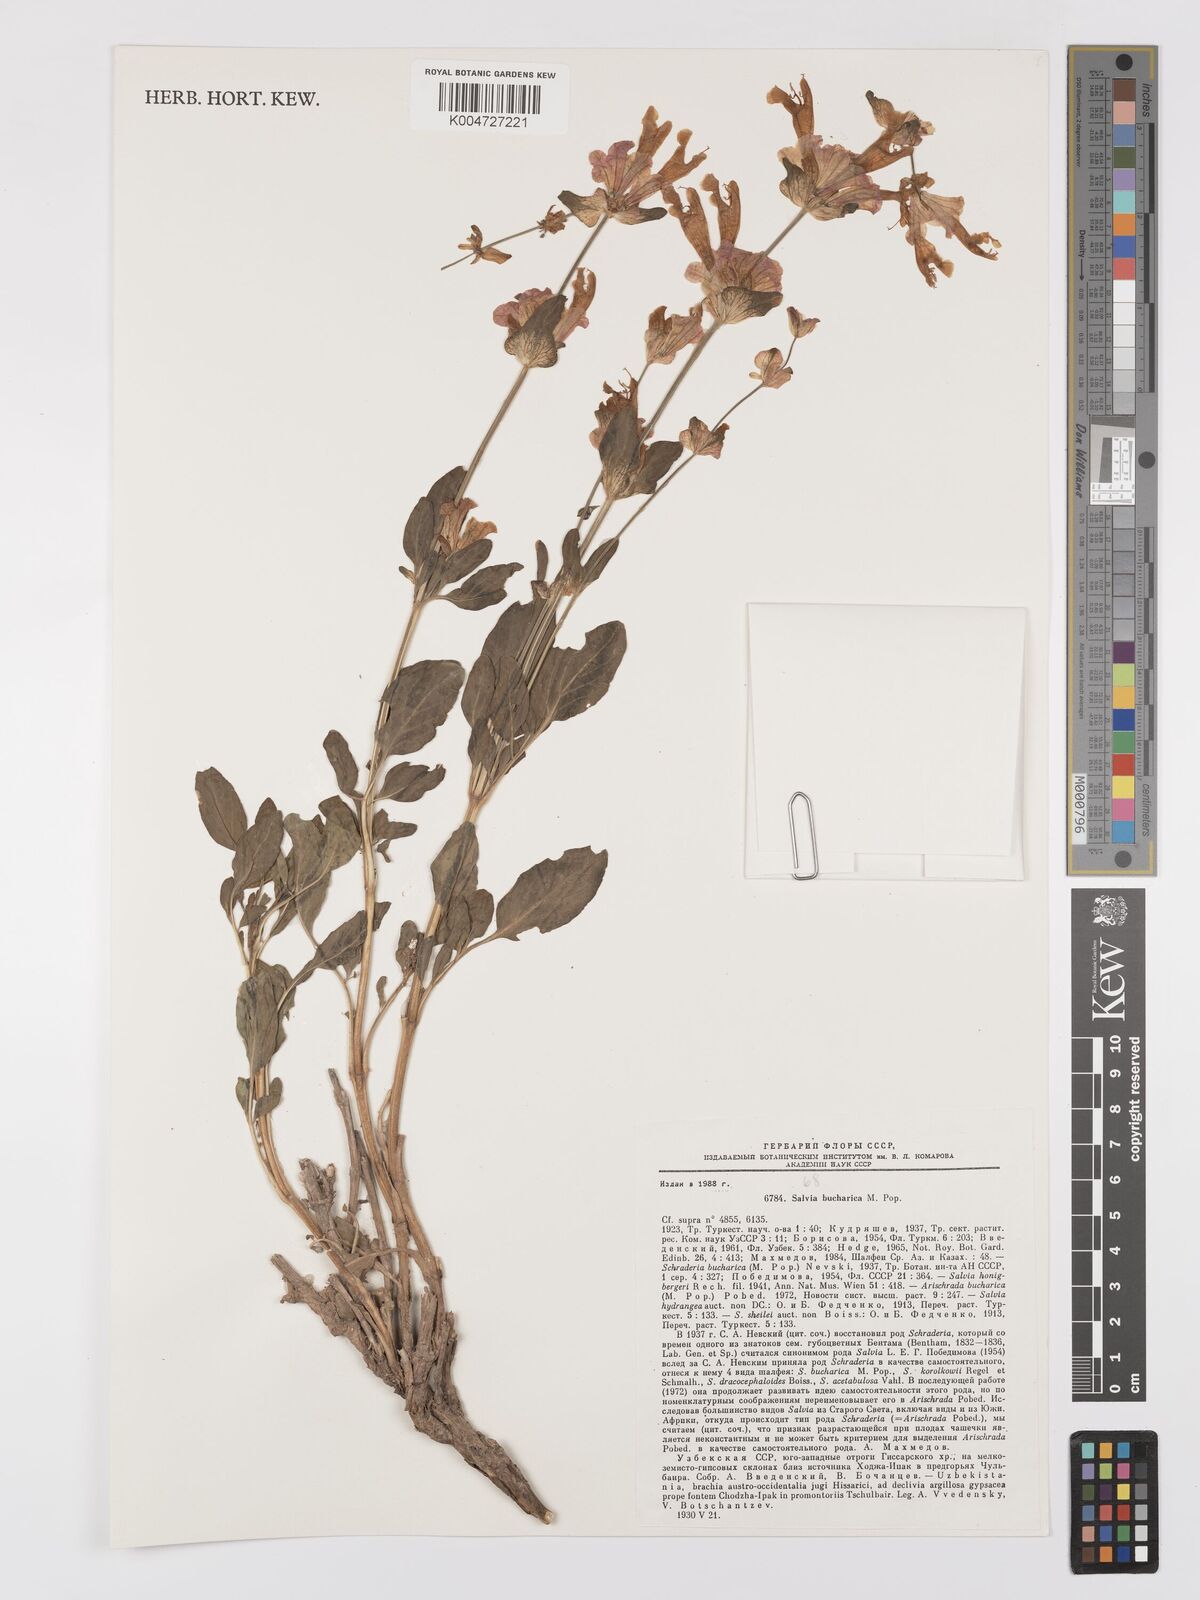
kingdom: Plantae
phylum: Tracheophyta
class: Magnoliopsida
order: Lamiales
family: Lamiaceae
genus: Salvia
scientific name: Salvia bucharica
